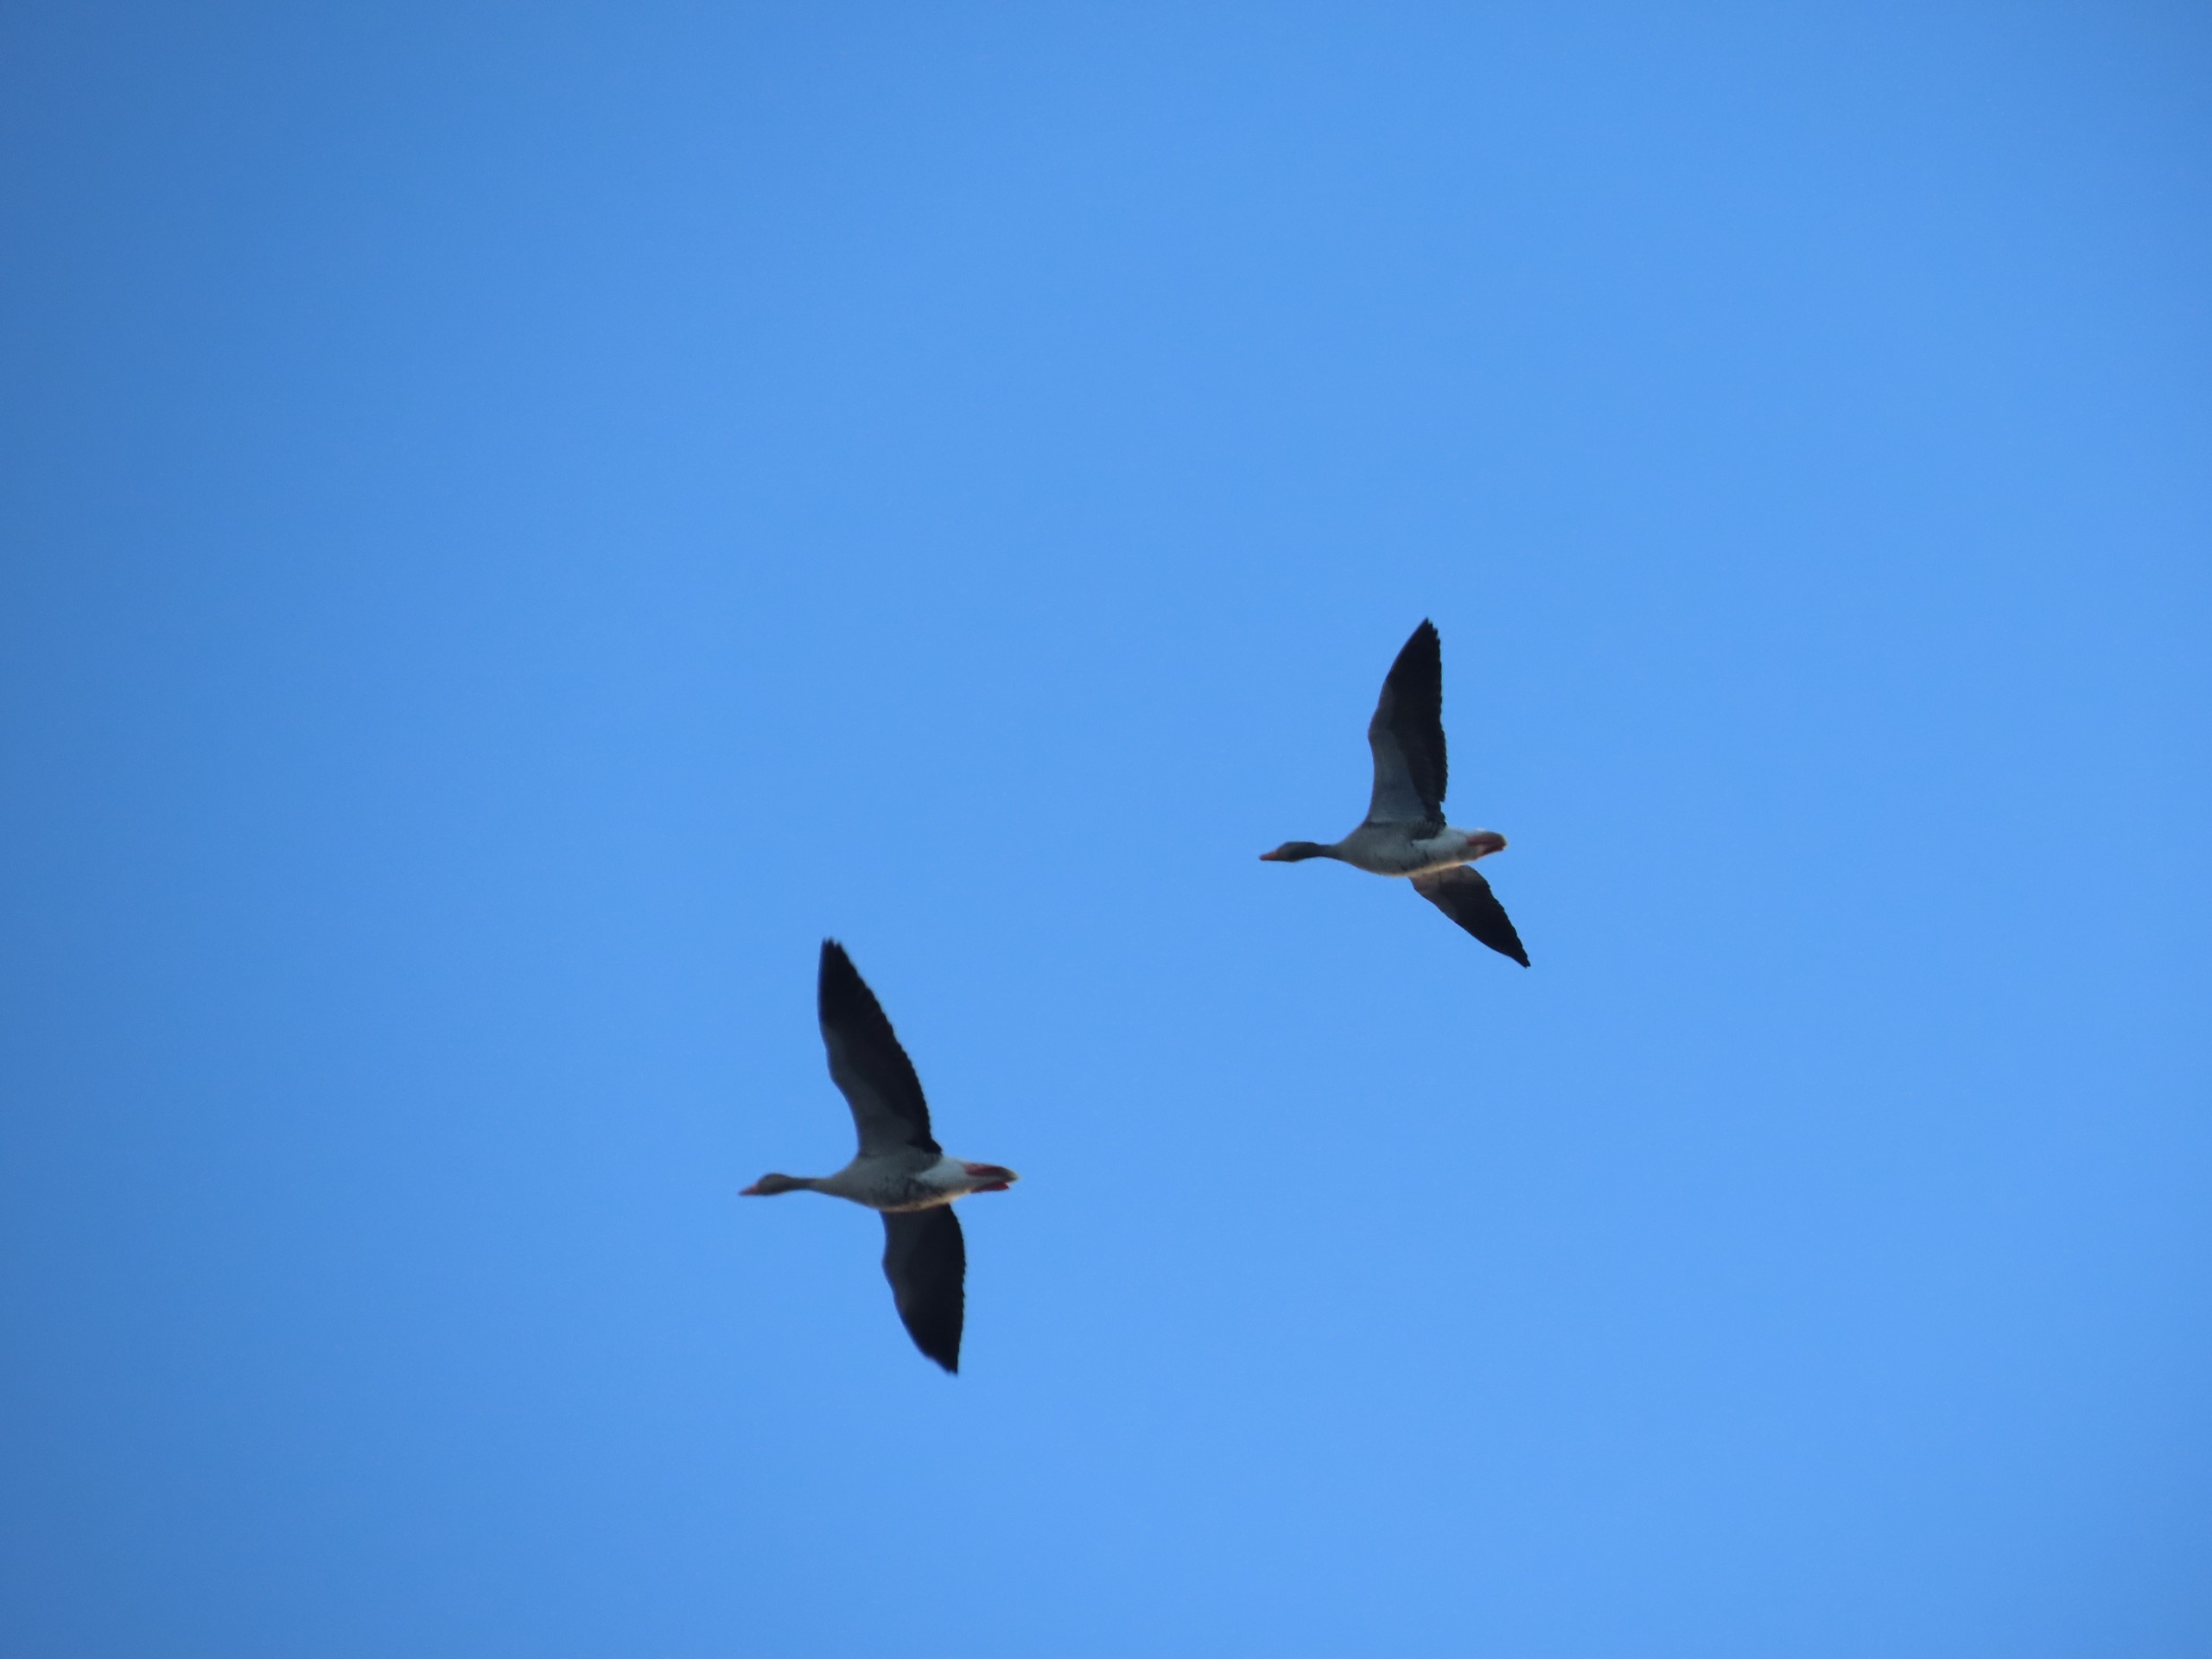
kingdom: Animalia
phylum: Chordata
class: Aves
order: Anseriformes
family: Anatidae
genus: Anser
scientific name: Anser anser
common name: Grågås
